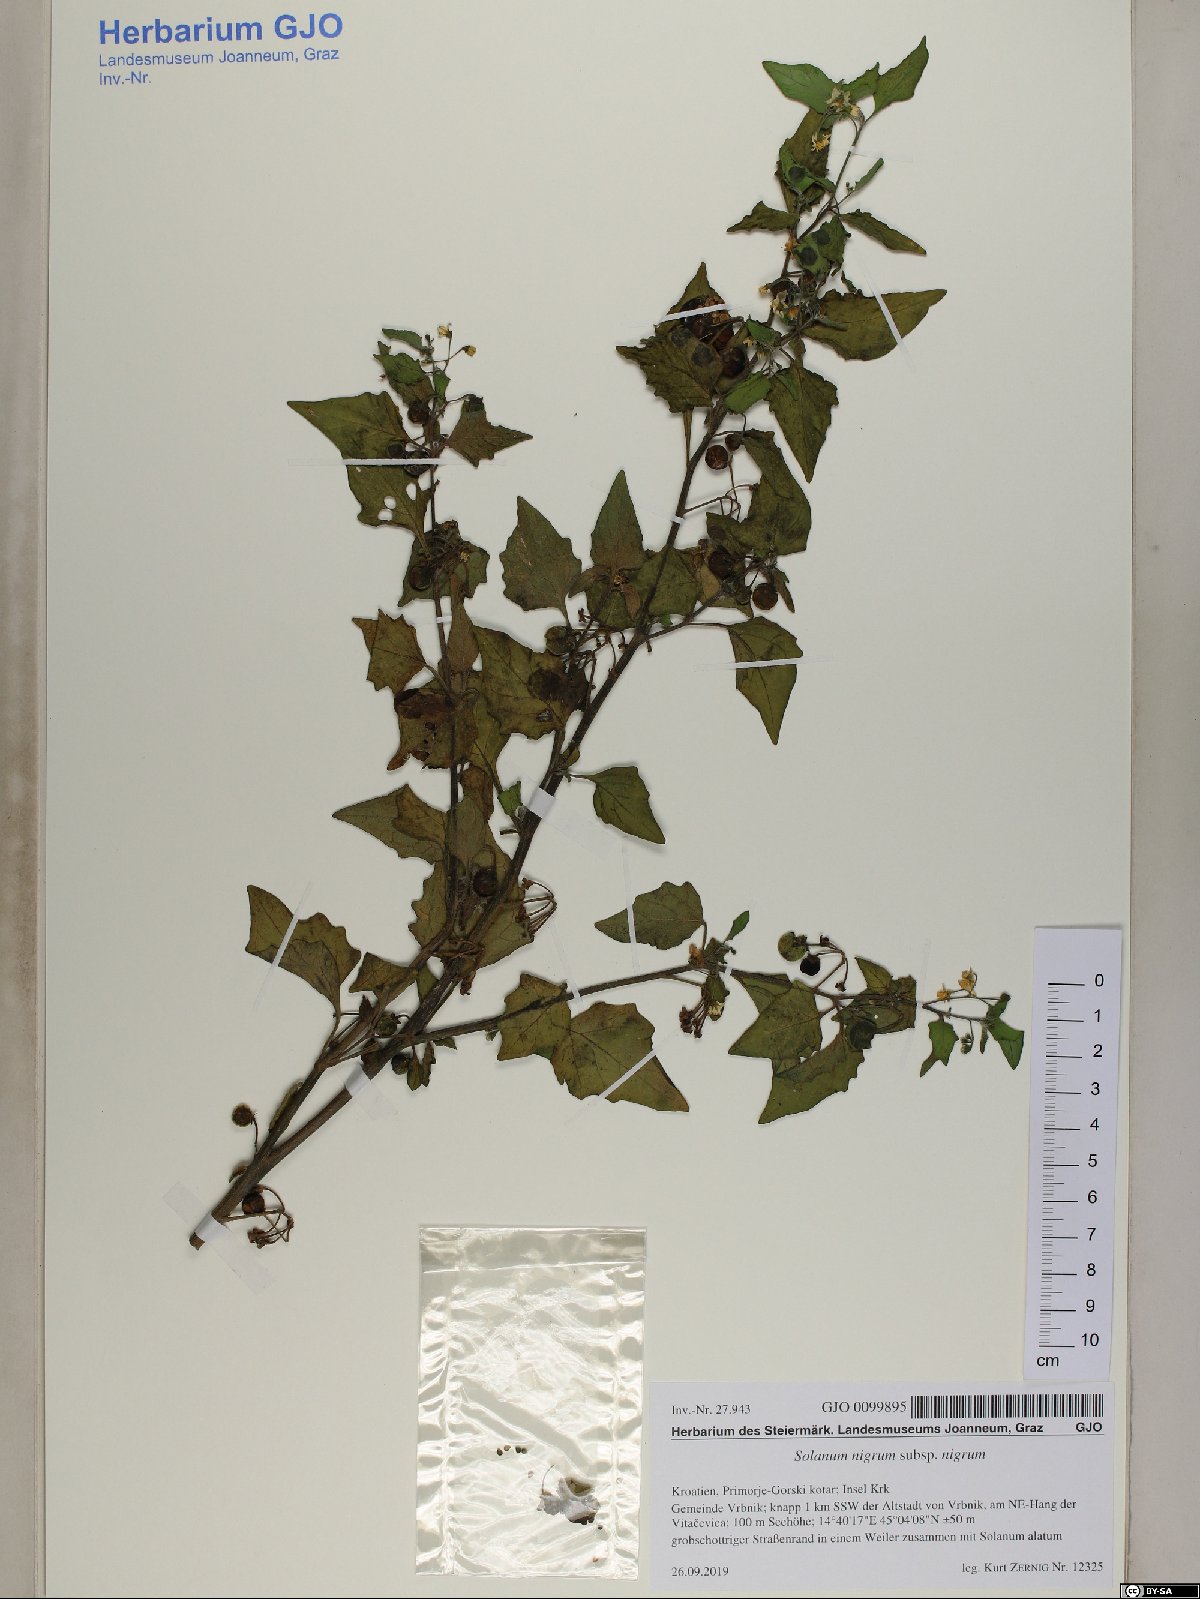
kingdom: Plantae
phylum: Tracheophyta
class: Magnoliopsida
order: Solanales
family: Solanaceae
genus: Solanum
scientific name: Solanum nigrum
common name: Black nightshade
